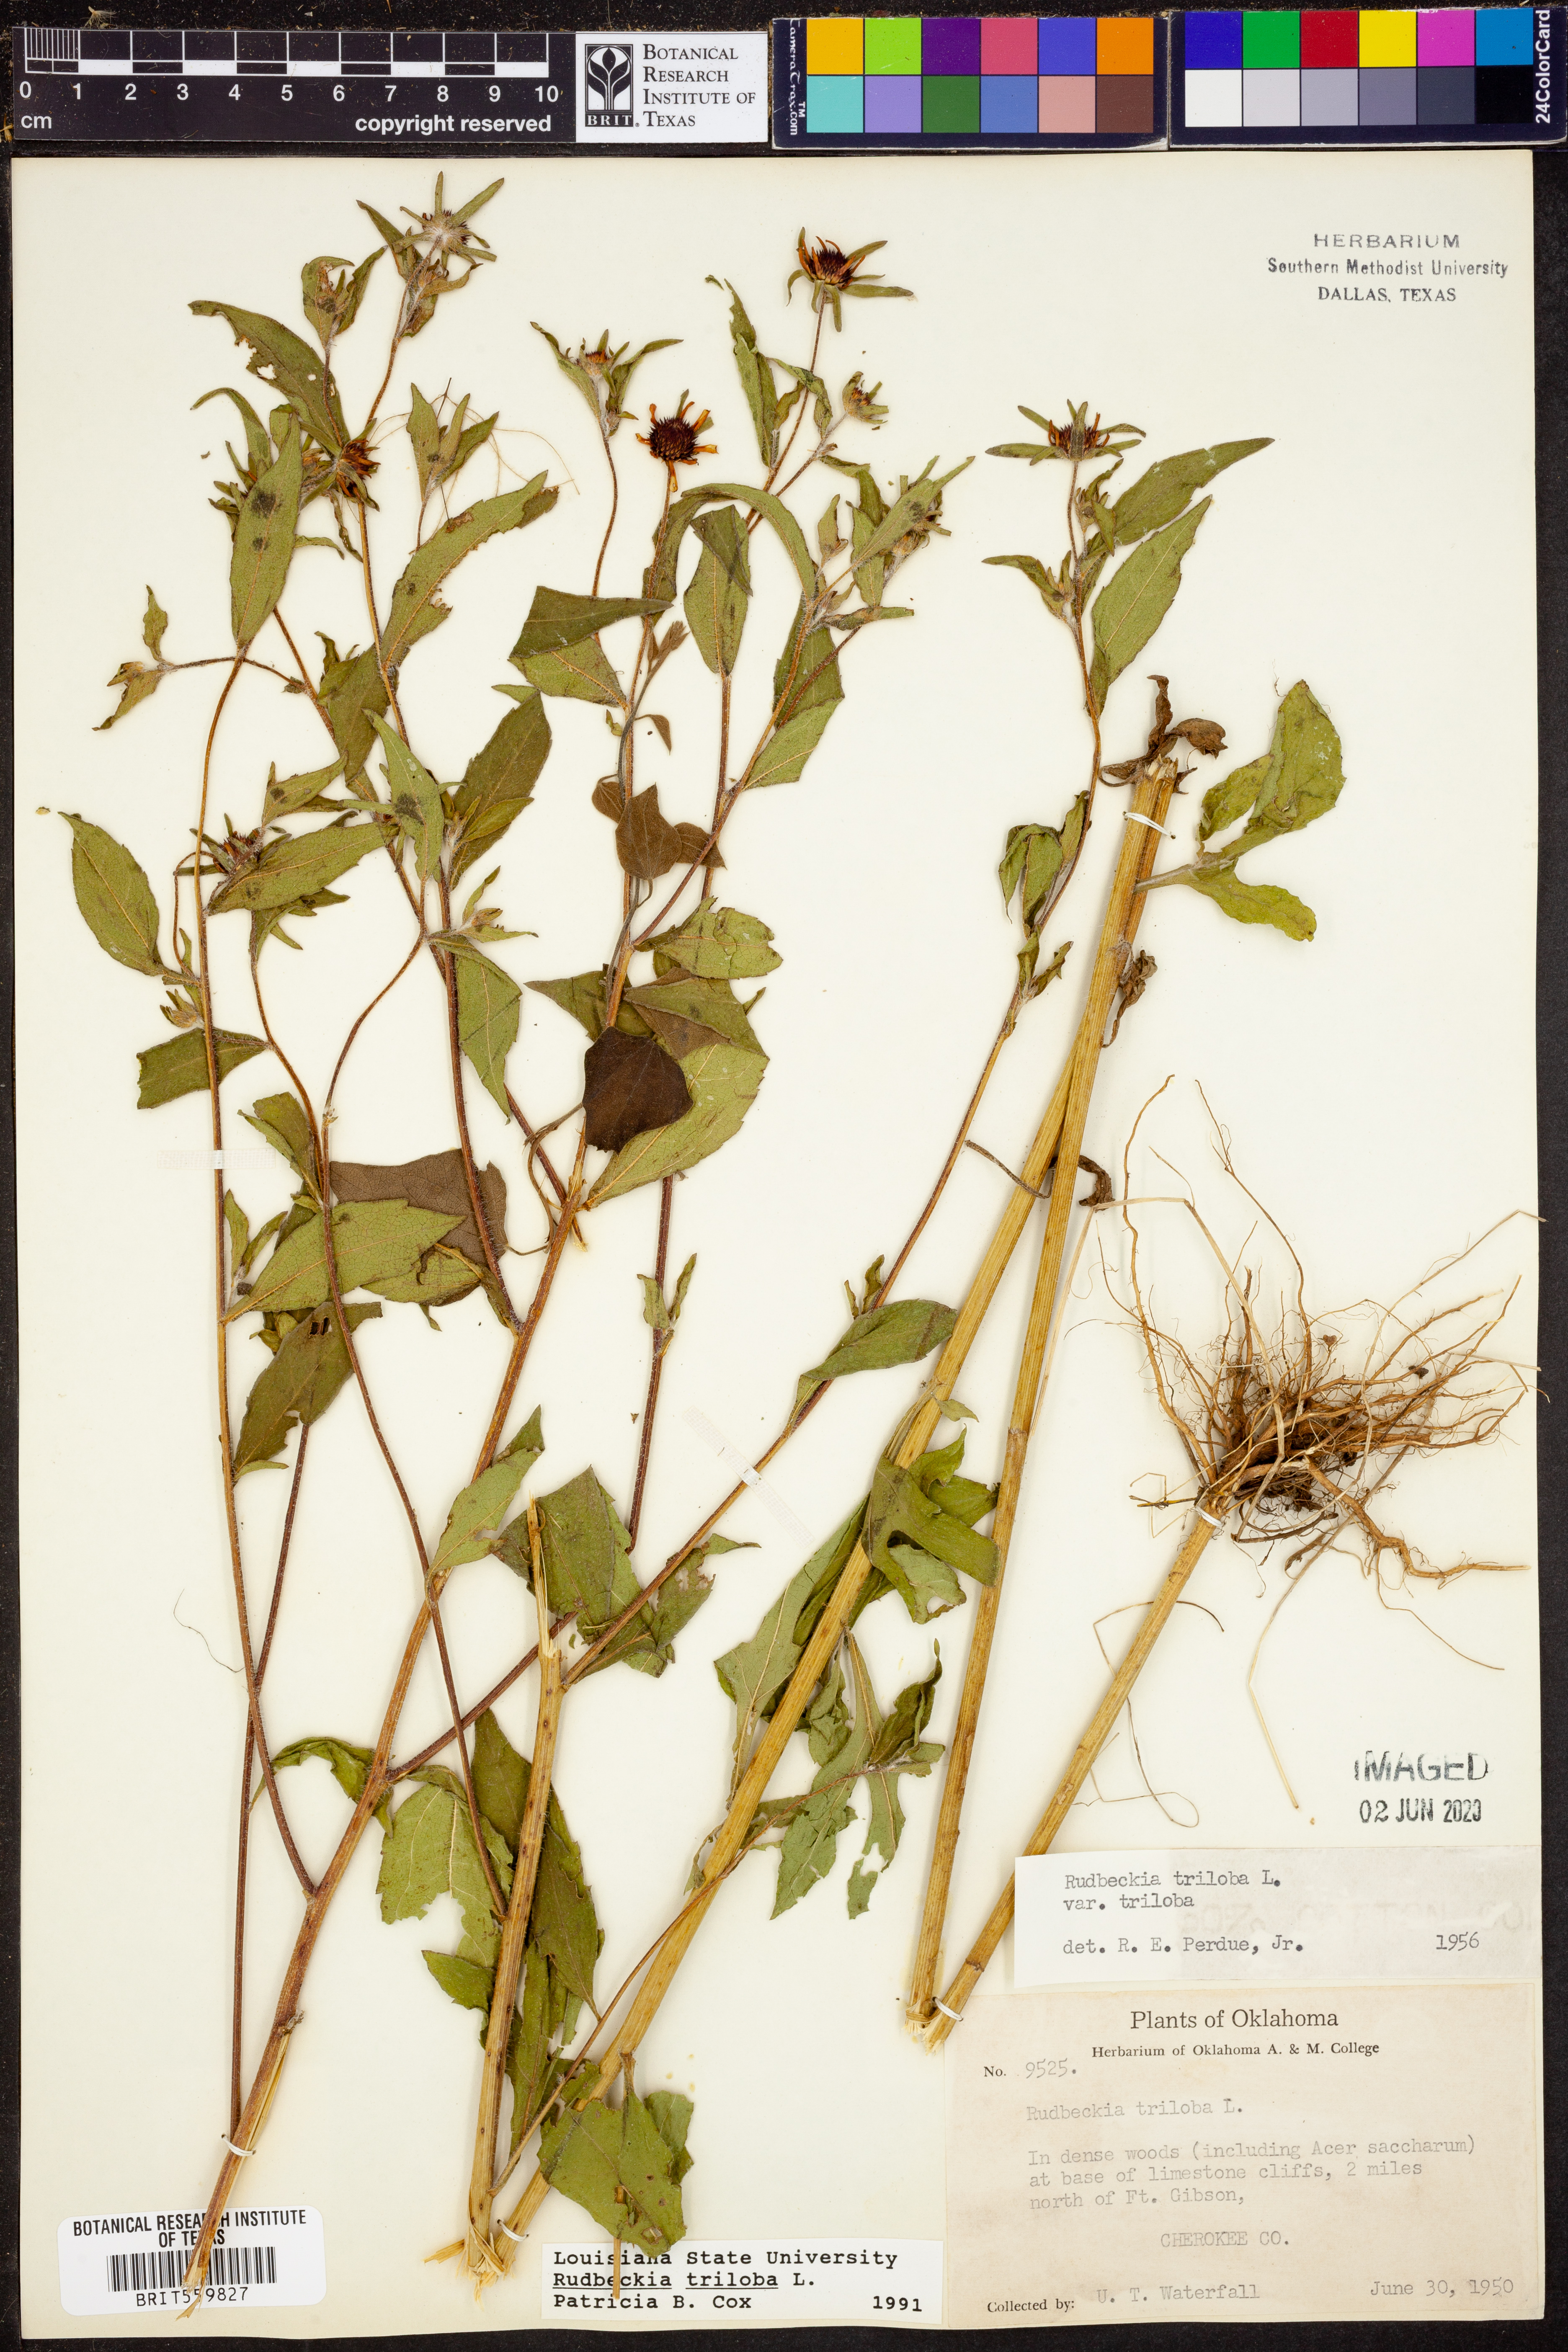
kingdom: Plantae
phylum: Tracheophyta
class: Magnoliopsida
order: Asterales
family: Asteraceae
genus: Rudbeckia
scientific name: Rudbeckia triloba
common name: Thin-leaved coneflower
